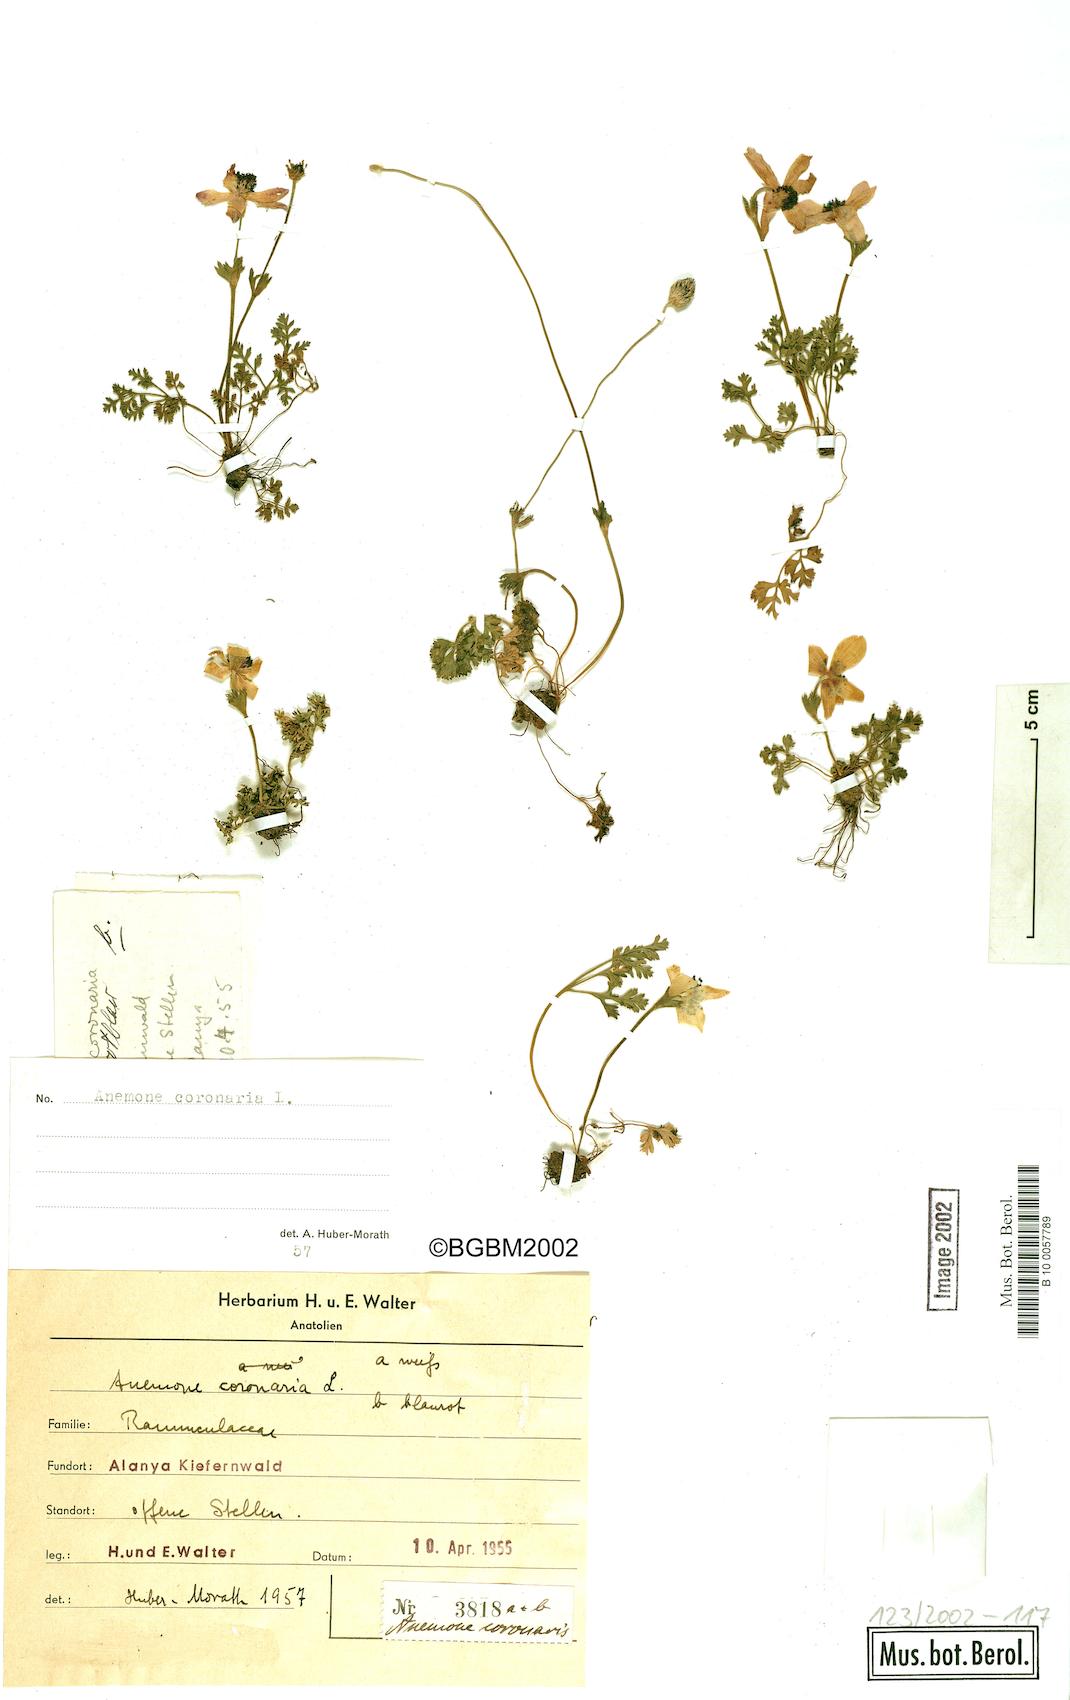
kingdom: Plantae
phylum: Tracheophyta
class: Magnoliopsida
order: Ranunculales
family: Ranunculaceae
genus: Anemone
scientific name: Anemone coronaria
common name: Poppy anemone
